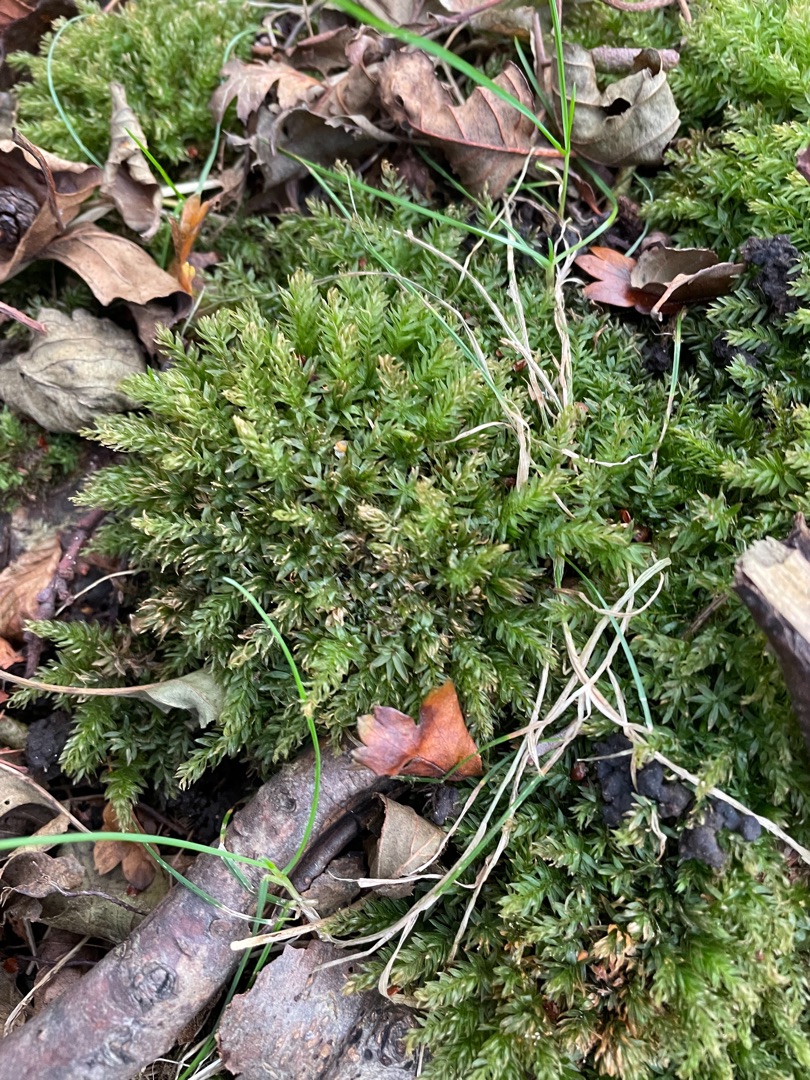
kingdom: Plantae
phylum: Bryophyta
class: Bryopsida
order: Bryales
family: Mniaceae
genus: Mnium
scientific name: Mnium hornum
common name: Brunfiltet stjernemos
